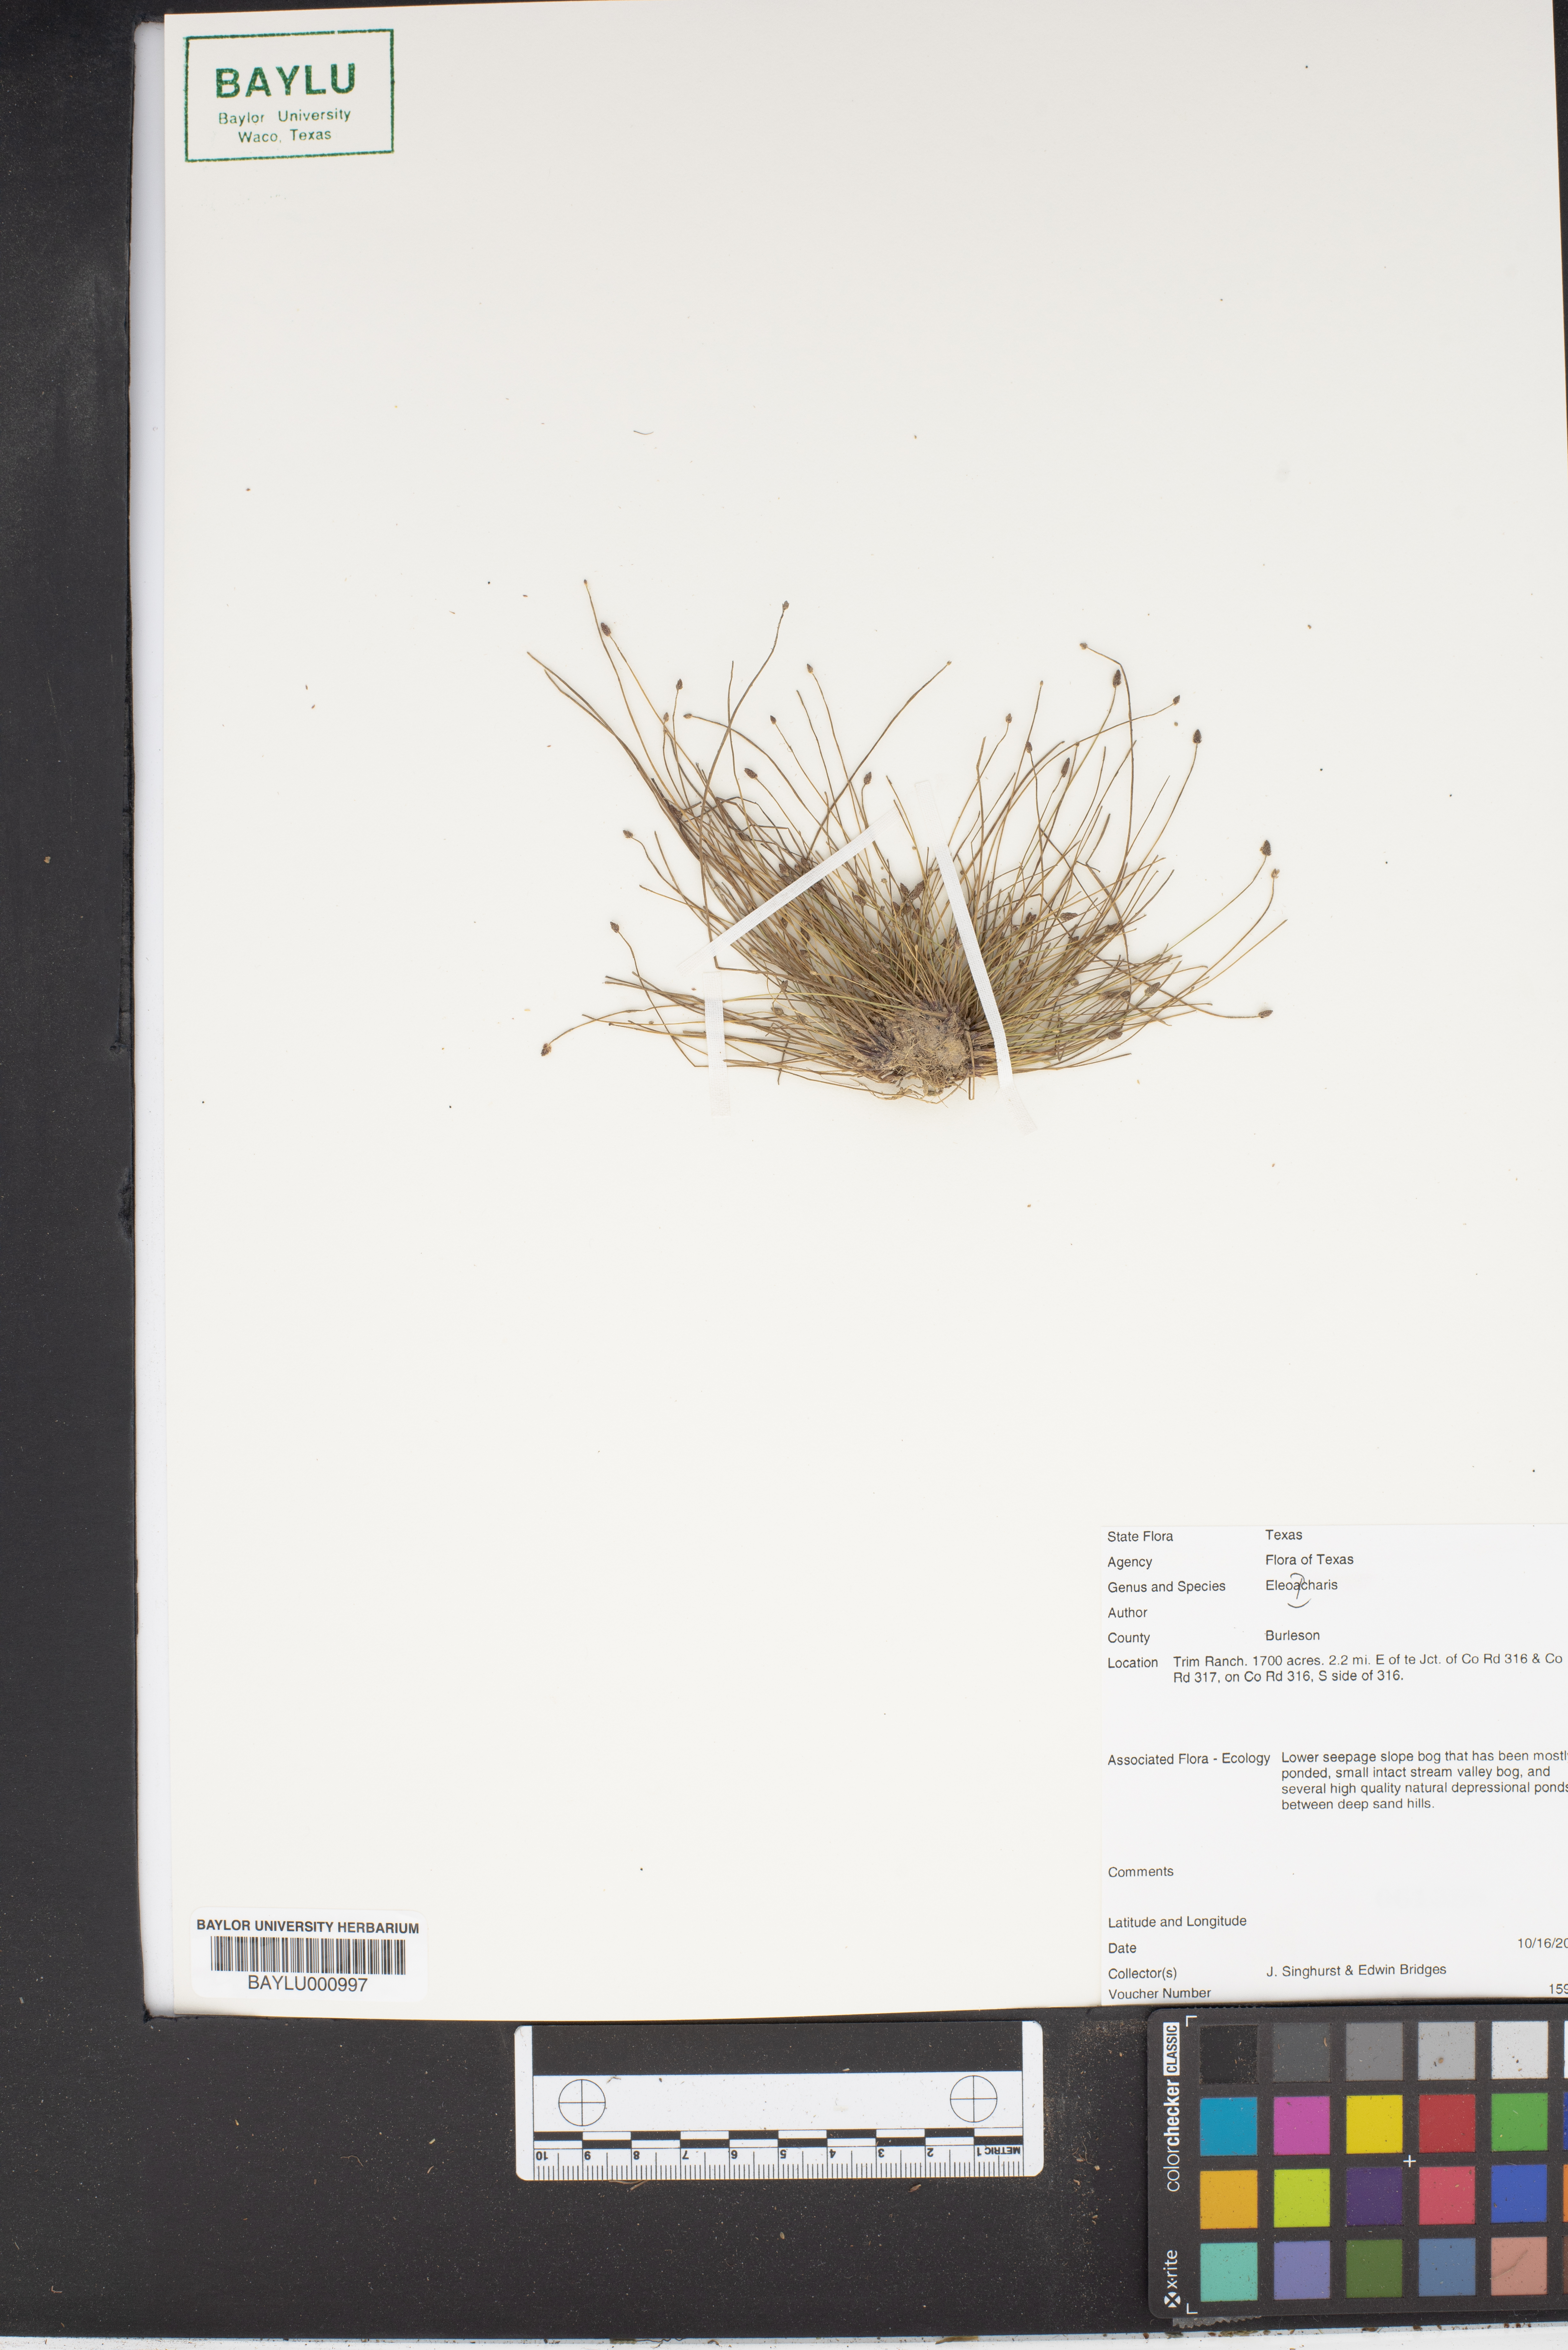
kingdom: Plantae
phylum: Tracheophyta
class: Liliopsida
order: Poales
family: Cyperaceae
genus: Eleocharis
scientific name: Eleocharis
